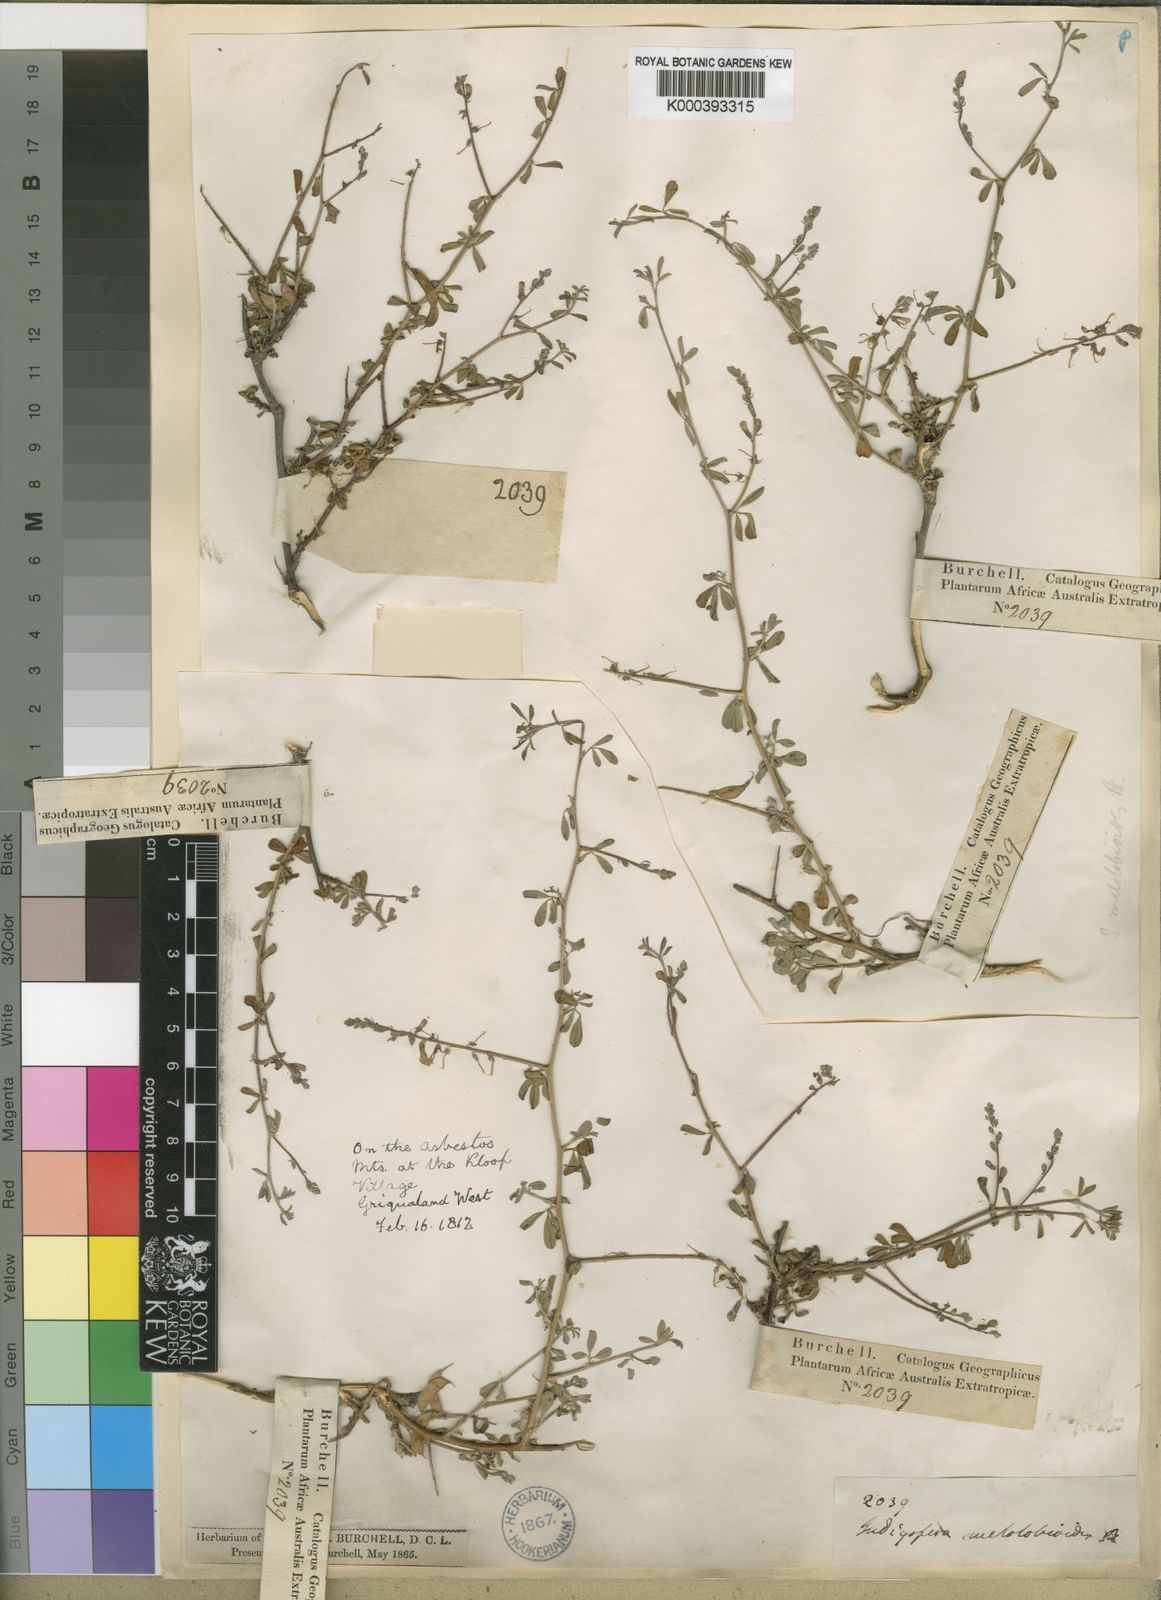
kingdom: Plantae
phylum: Tracheophyta
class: Magnoliopsida
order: Fabales
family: Fabaceae
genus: Indigofera
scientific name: Indigofera sessilifolia
